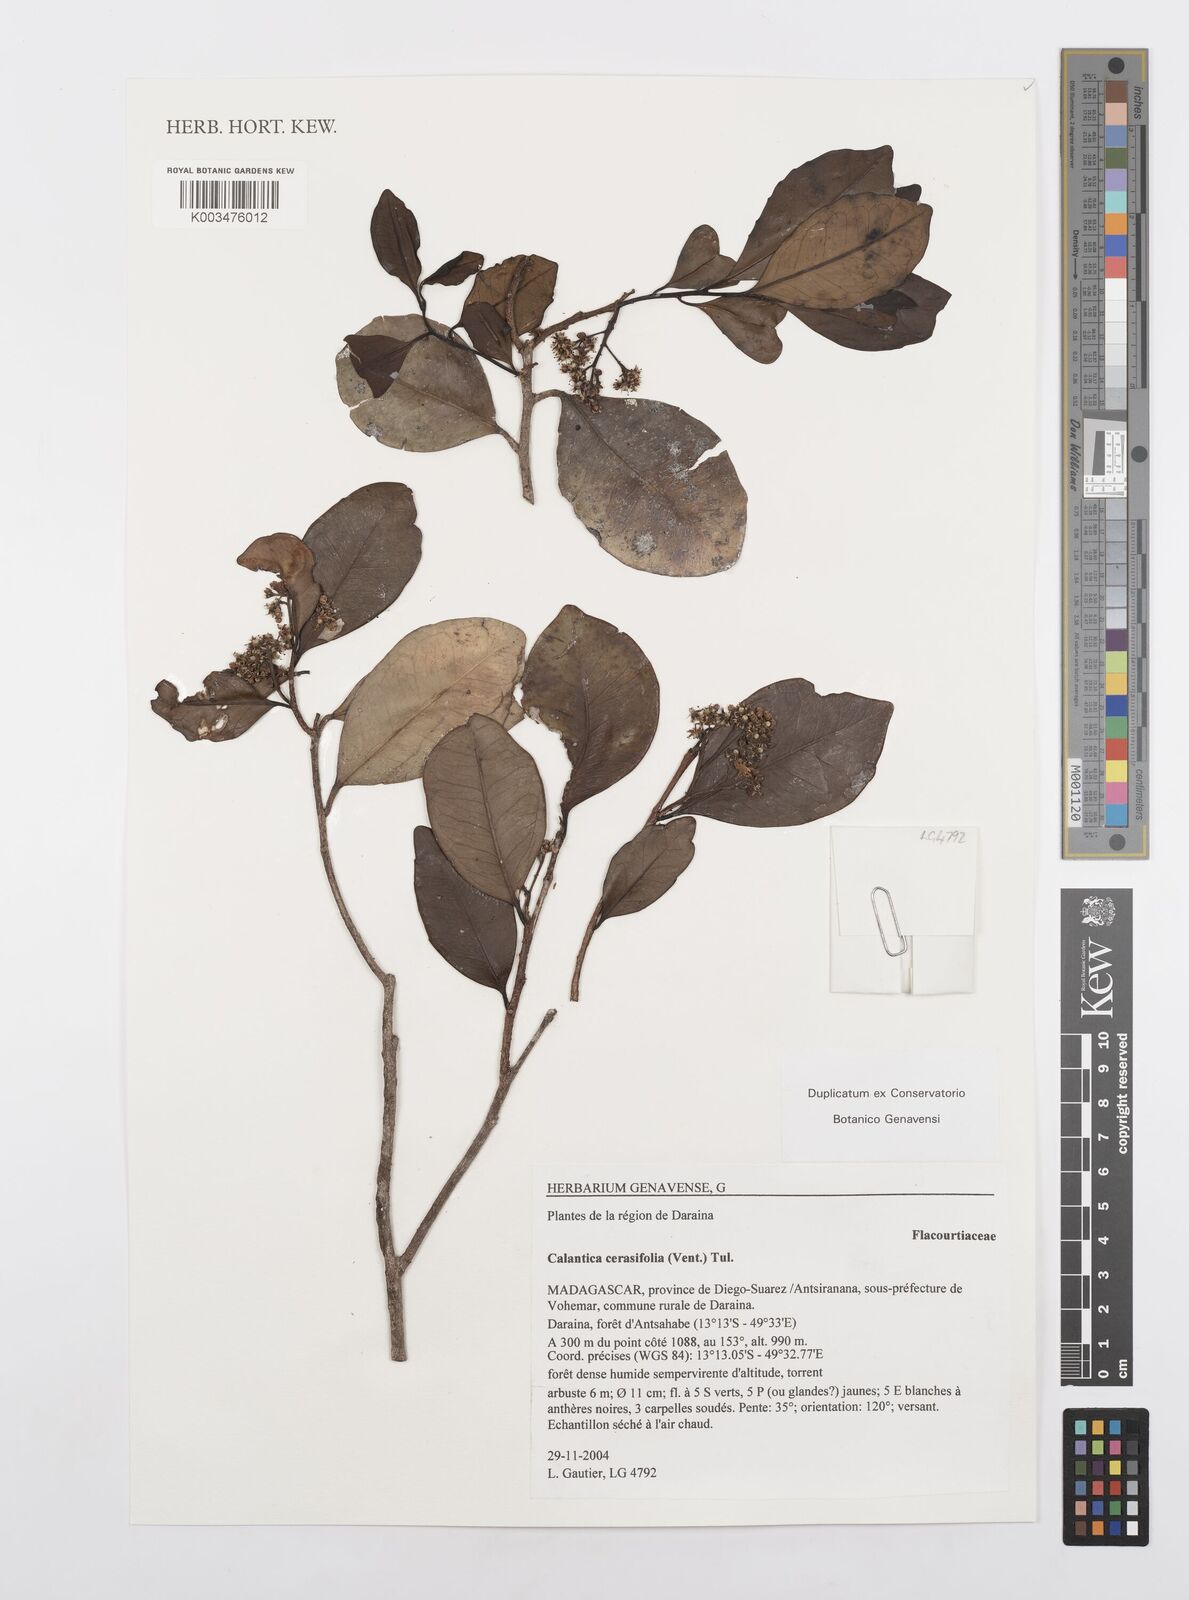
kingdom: Plantae
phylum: Tracheophyta
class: Magnoliopsida
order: Malpighiales
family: Salicaceae
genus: Calantica
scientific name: Calantica cerasifolia
